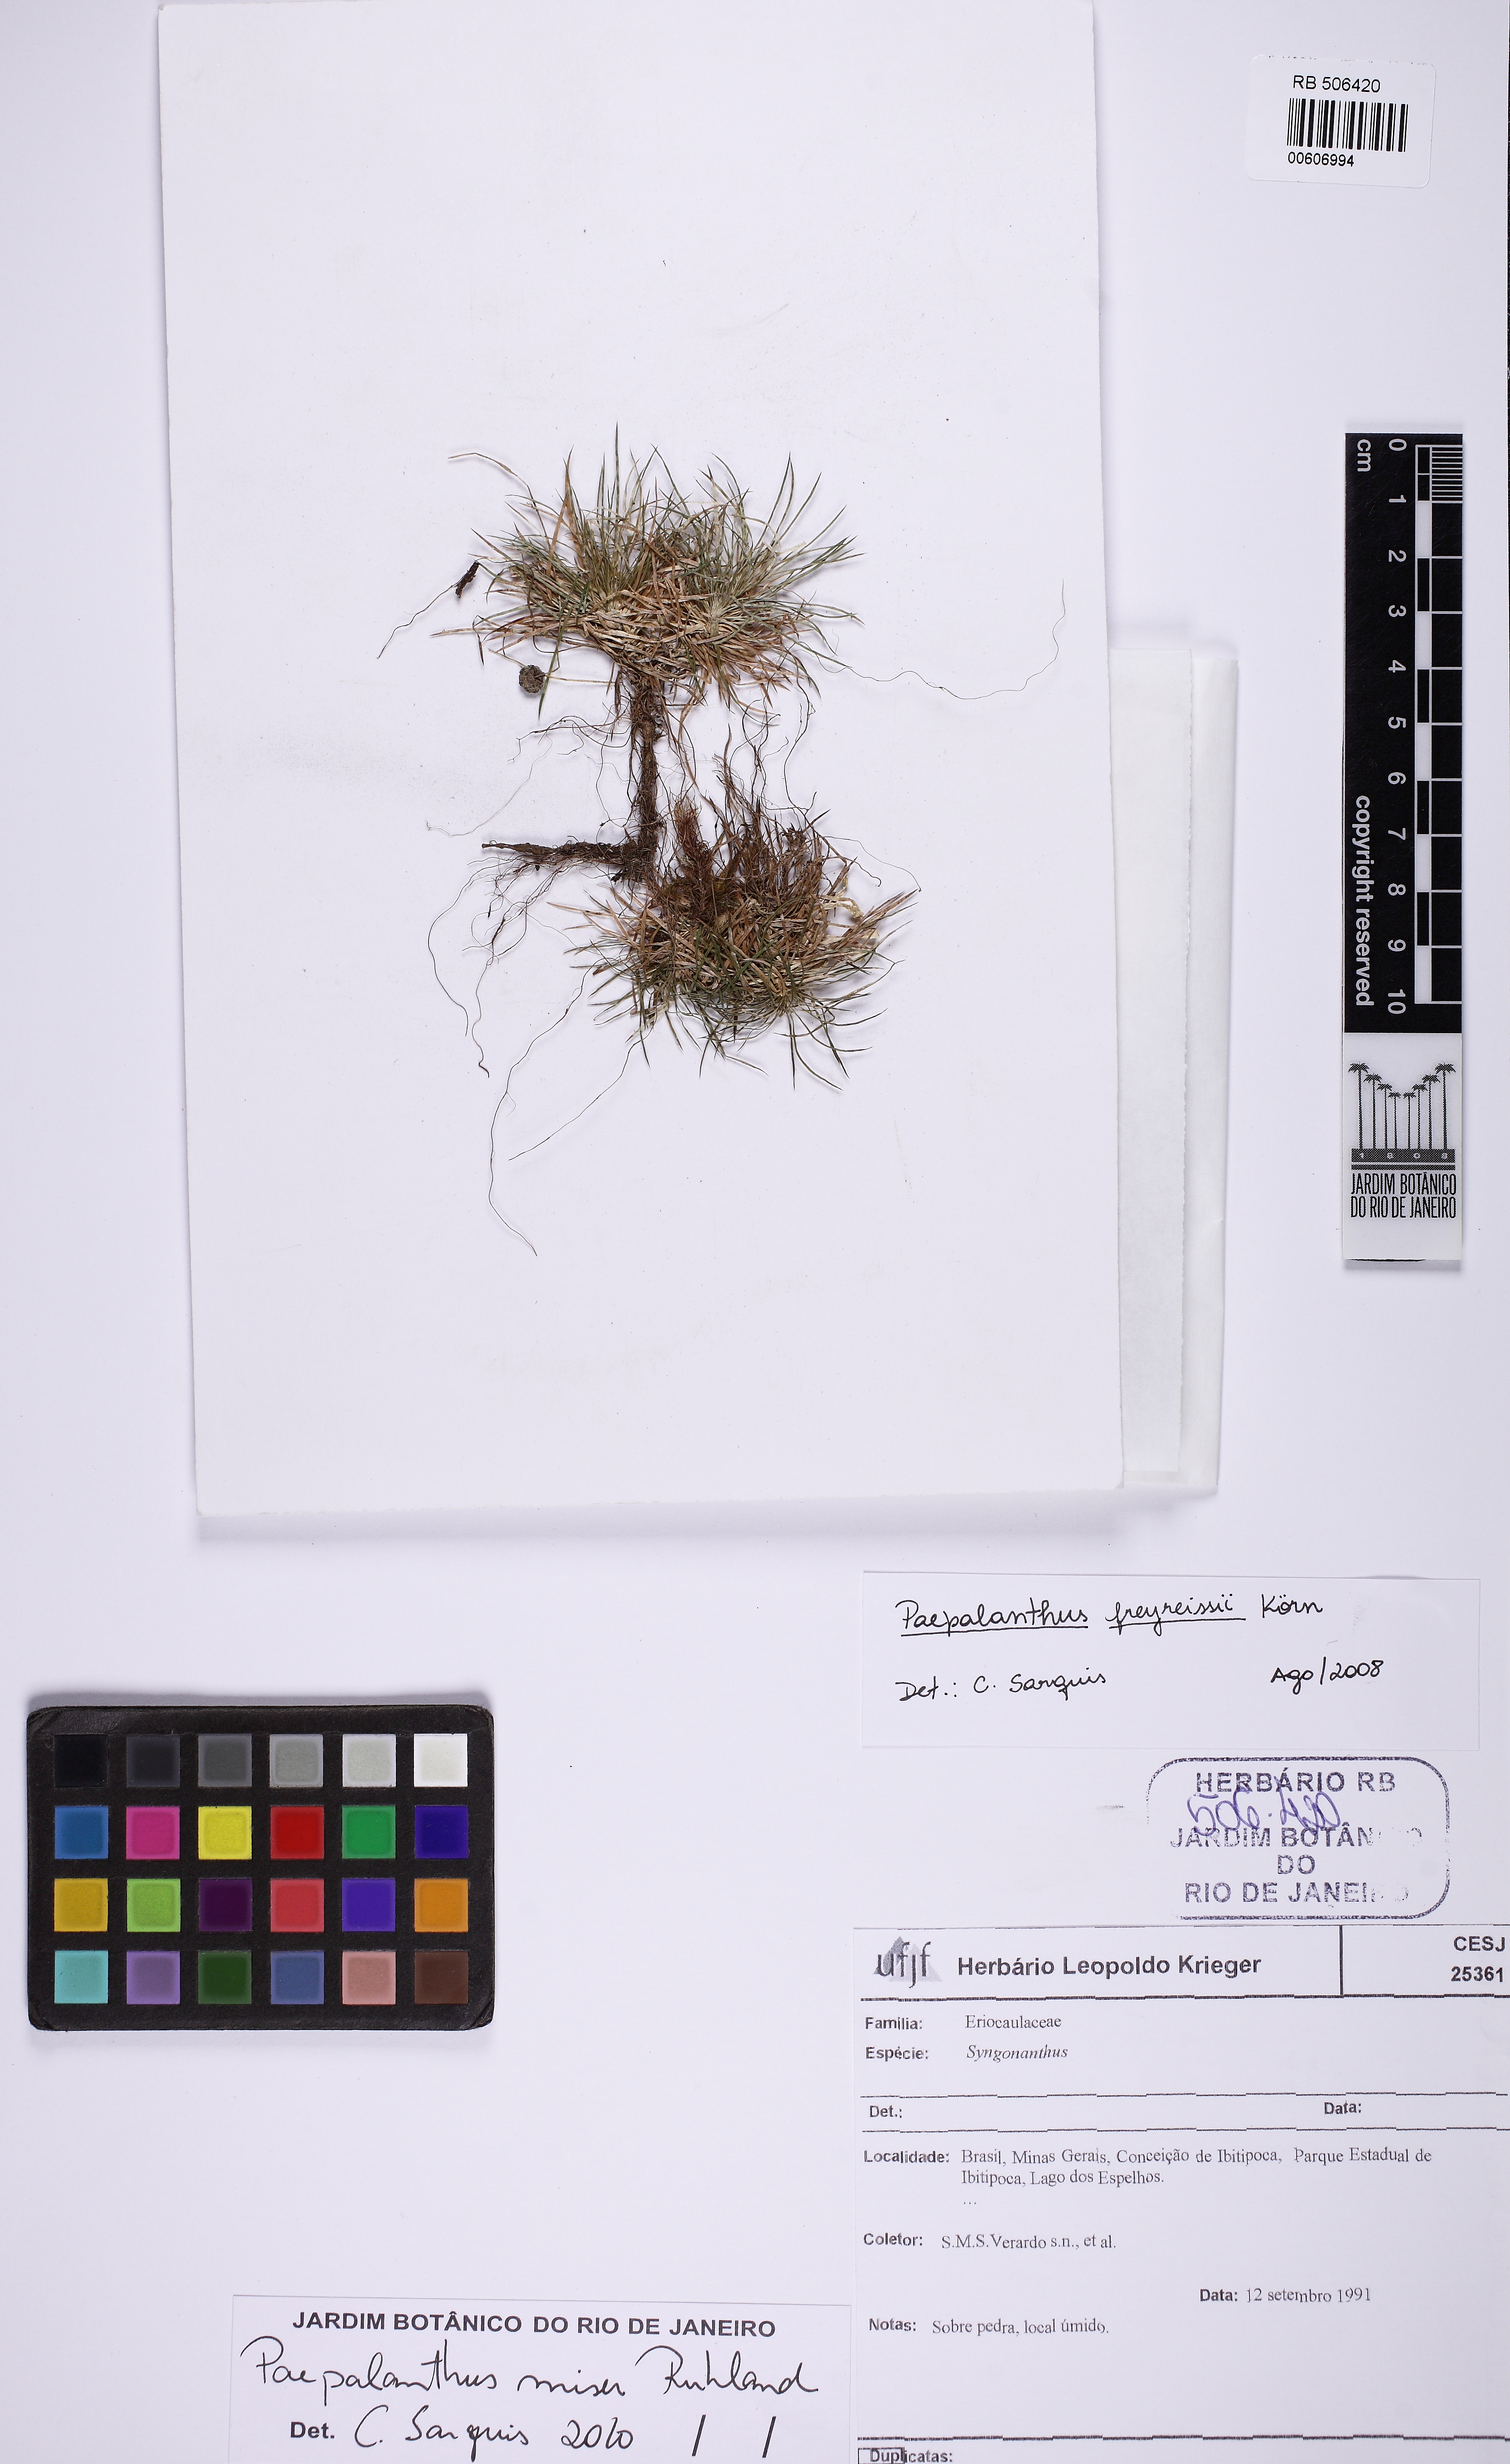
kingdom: Plantae
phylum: Tracheophyta
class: Liliopsida
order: Poales
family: Eriocaulaceae
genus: Paepalanthus
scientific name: Paepalanthus miser
